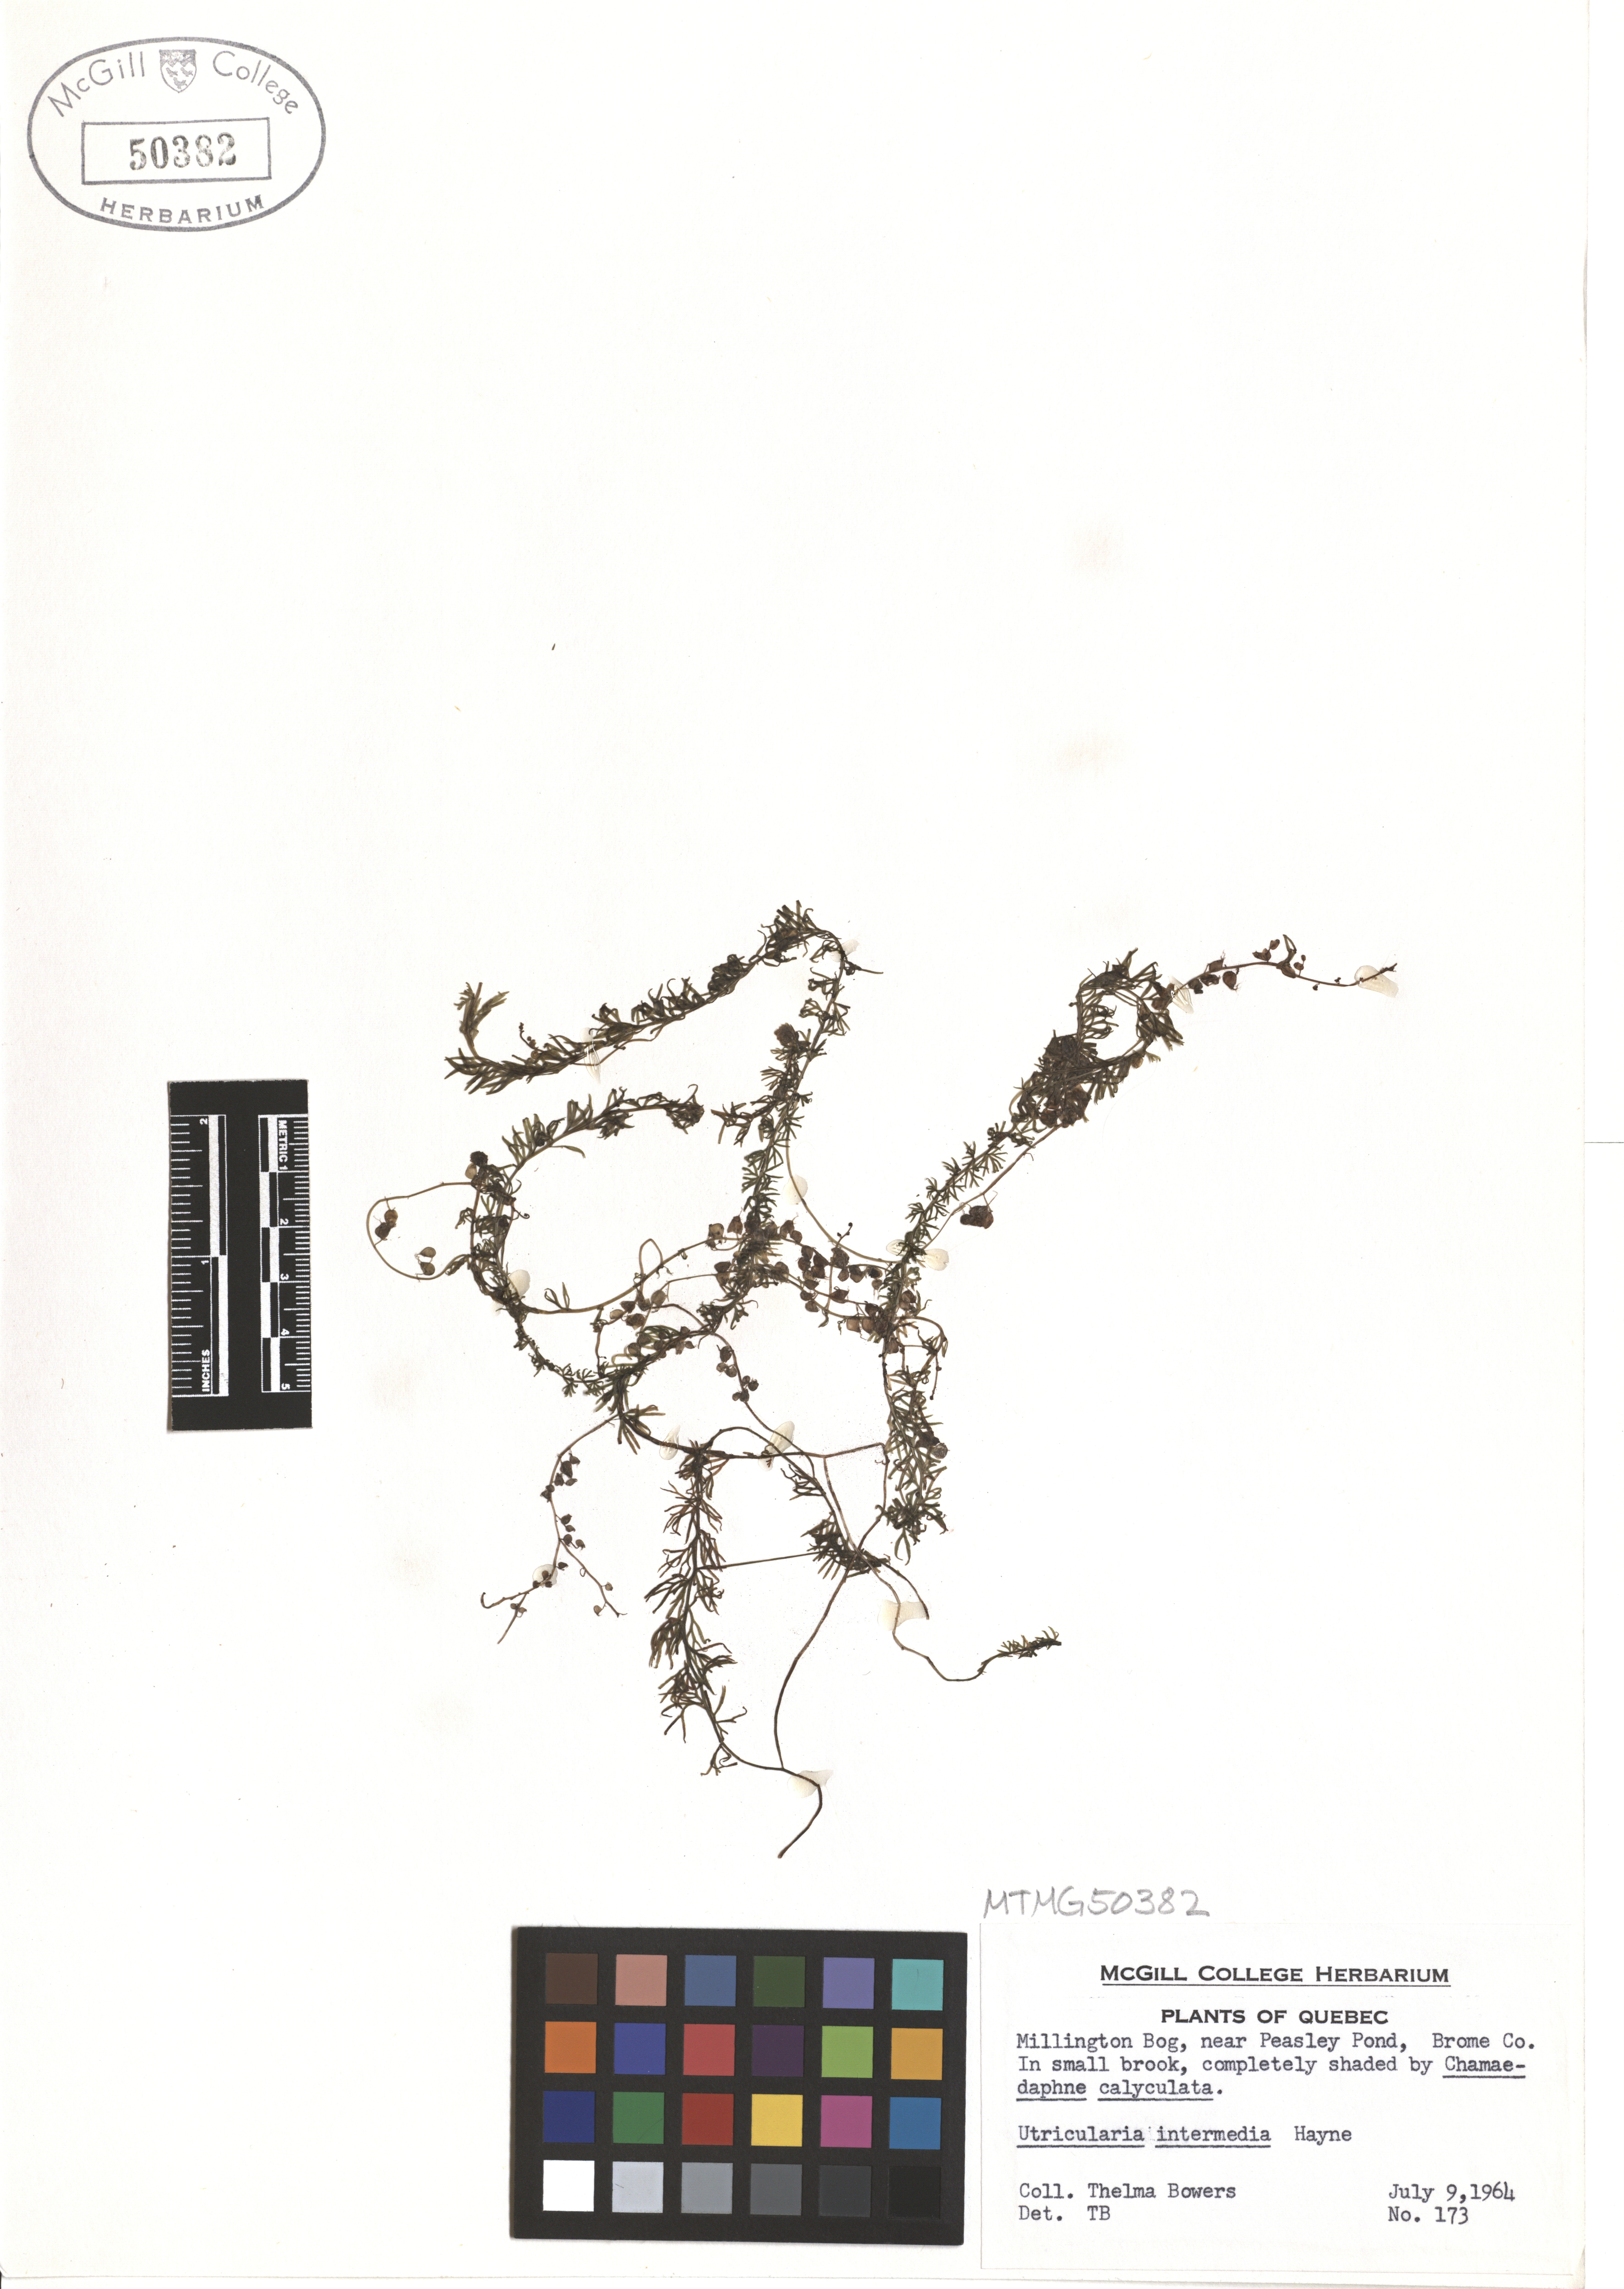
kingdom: Plantae
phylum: Tracheophyta
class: Magnoliopsida
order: Lamiales
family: Lentibulariaceae
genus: Utricularia
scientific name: Utricularia intermedia
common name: Intermediate bladderwort
